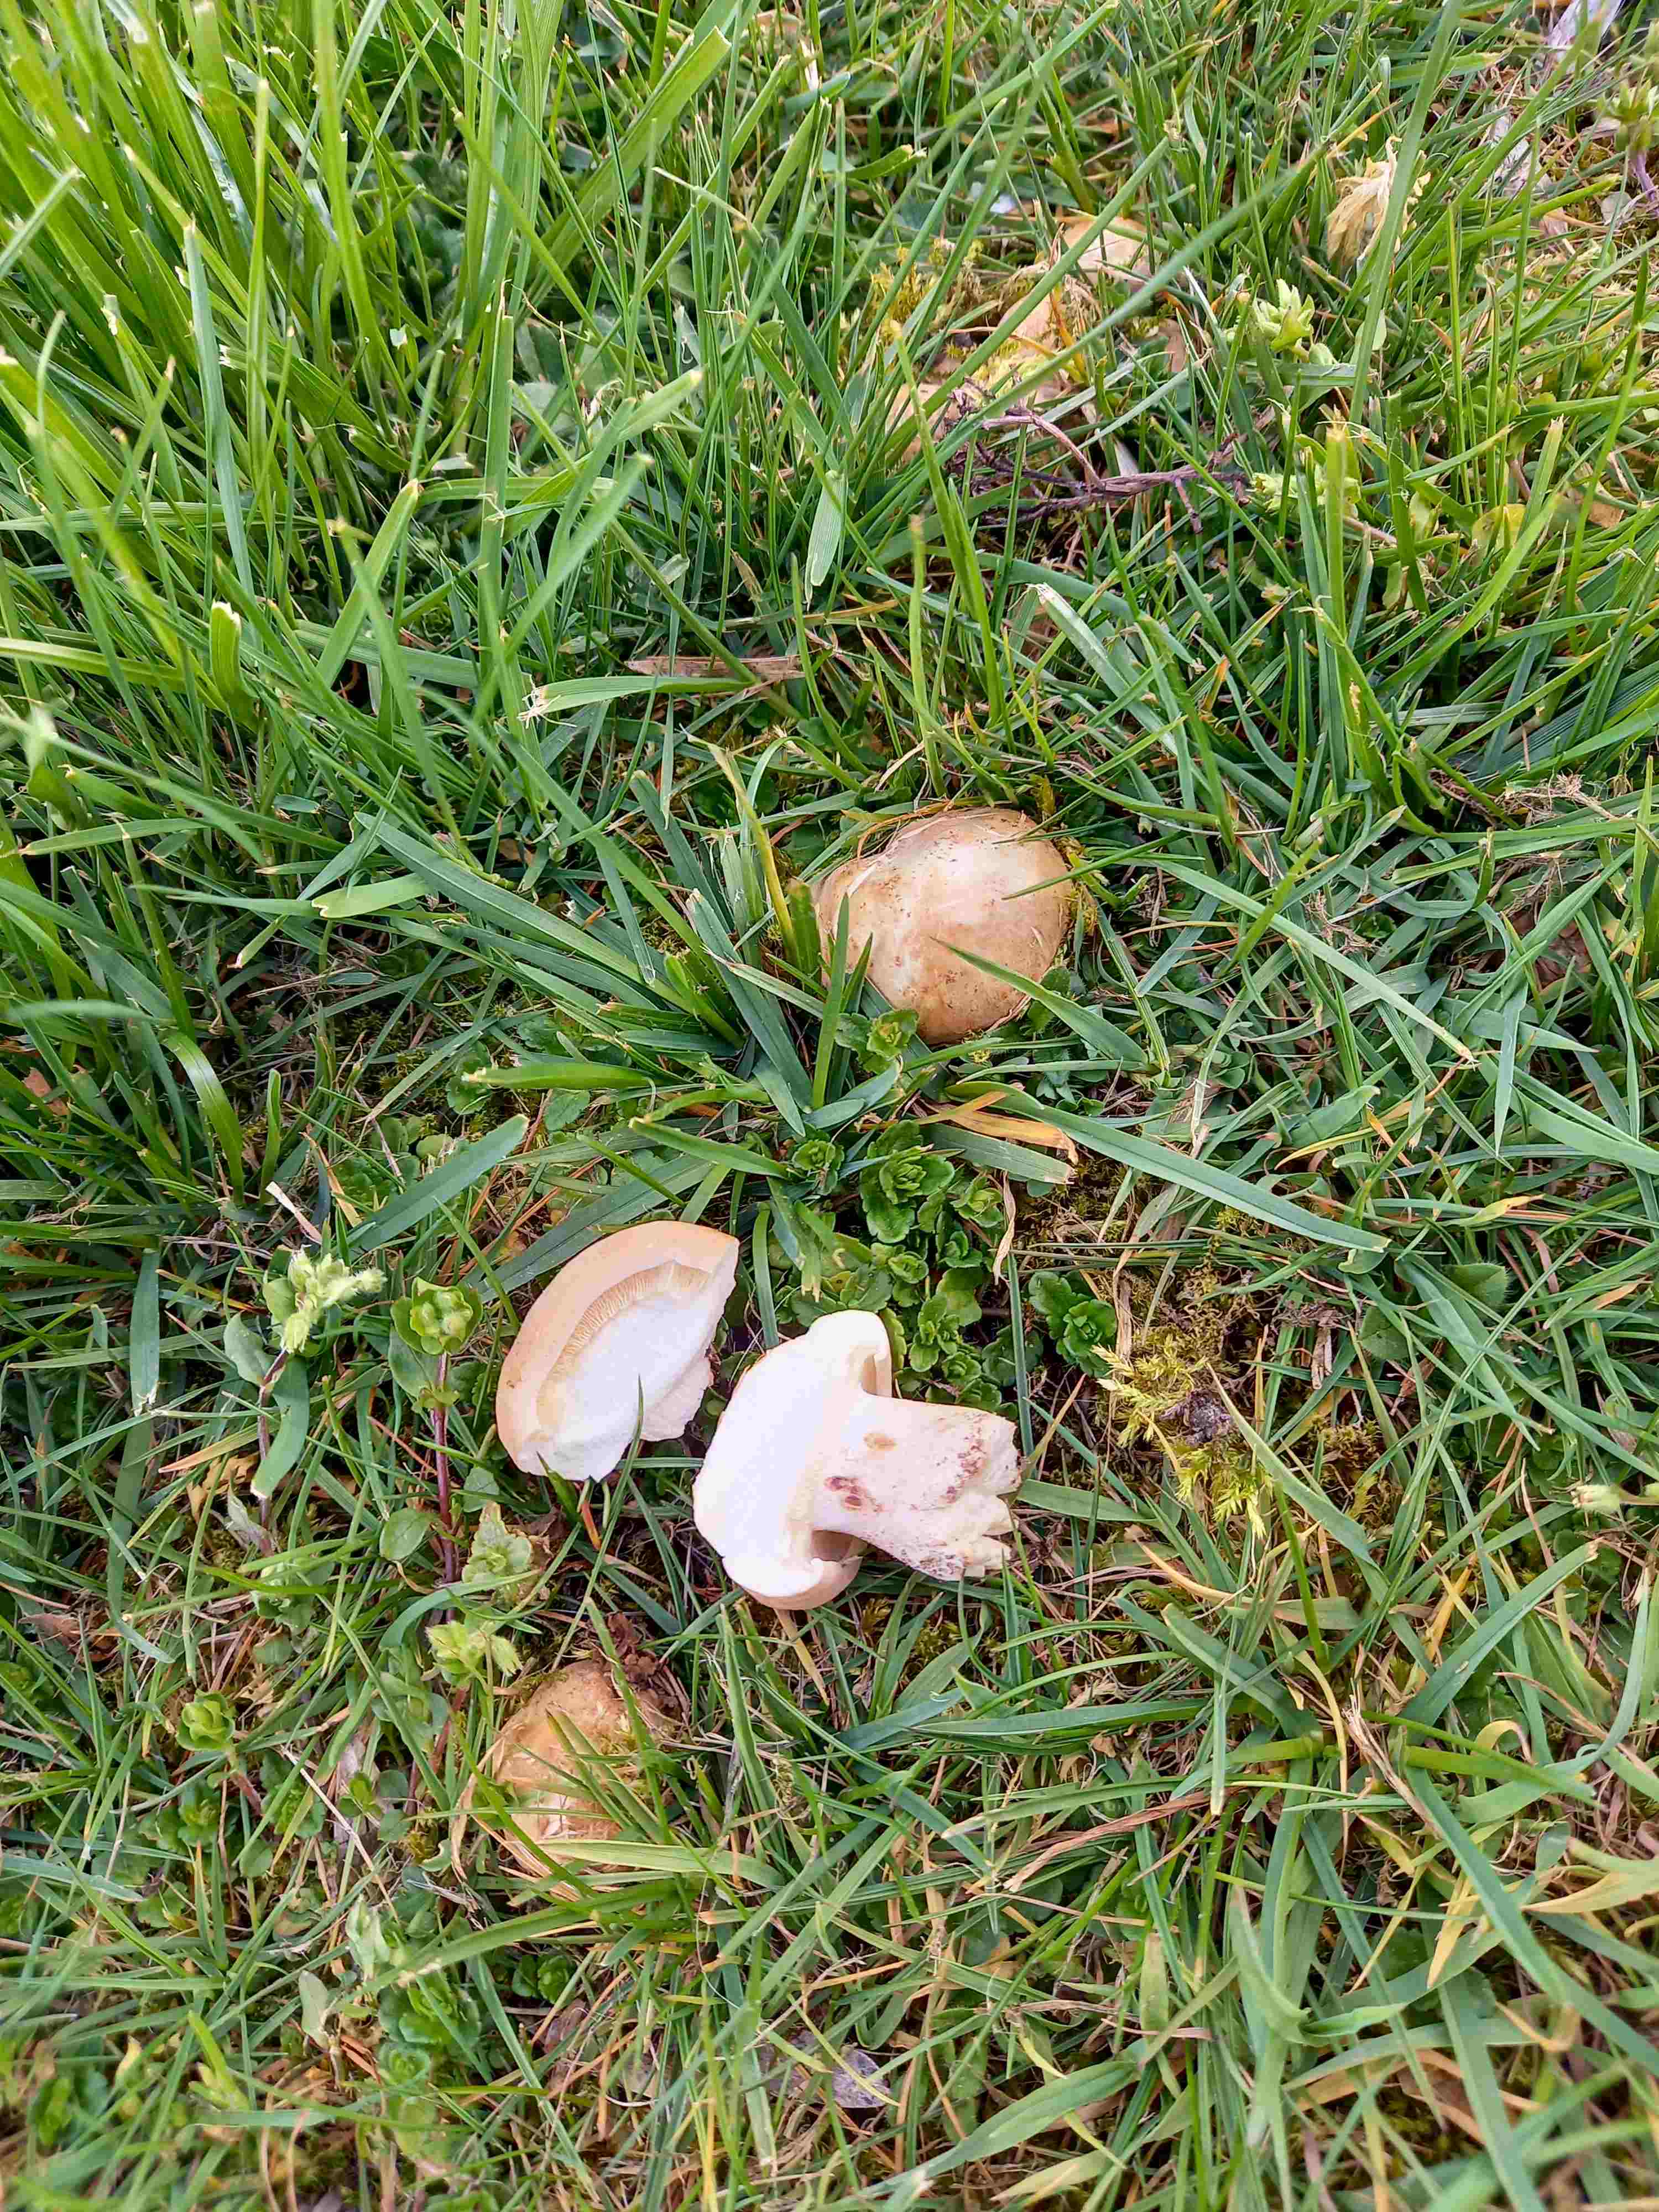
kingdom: Fungi
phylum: Basidiomycota
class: Agaricomycetes
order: Agaricales
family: Lyophyllaceae
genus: Calocybe
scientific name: Calocybe gambosa
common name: vårmusseron
